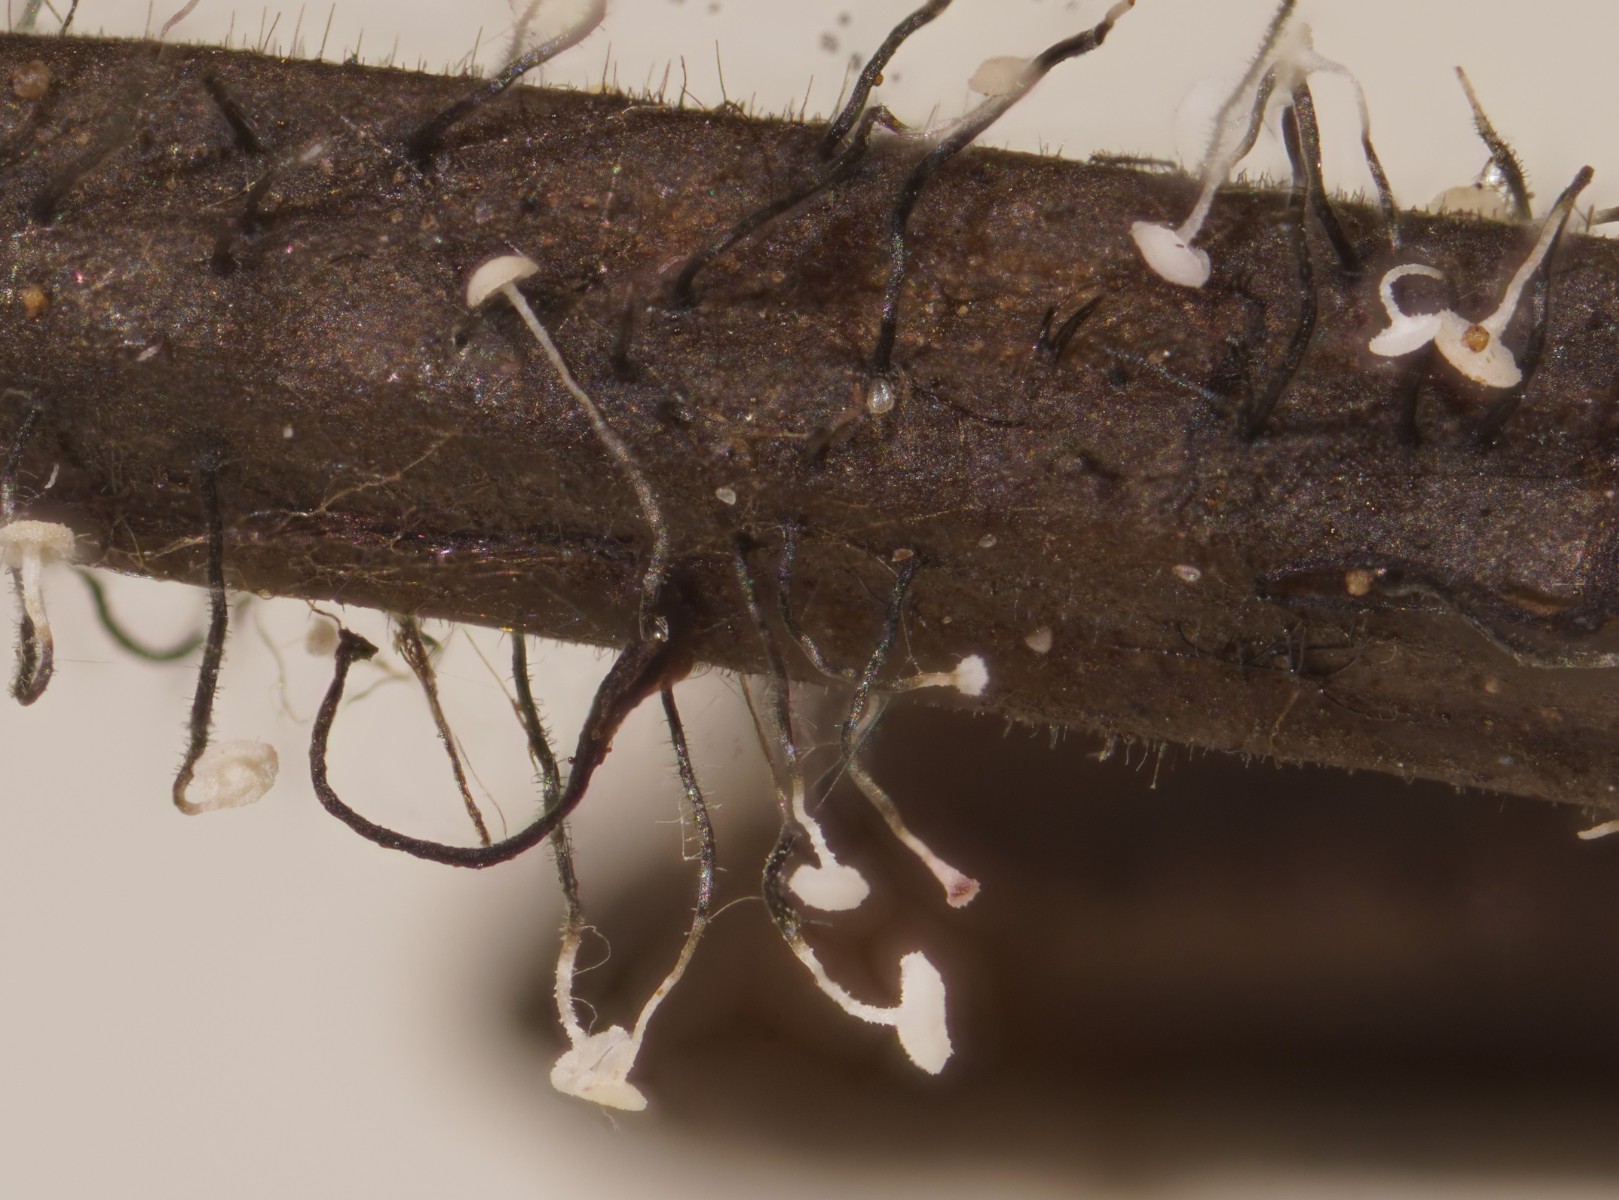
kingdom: Fungi
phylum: Ascomycota
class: Leotiomycetes
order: Helotiales
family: Gelatinodiscaceae
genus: Ombrophila
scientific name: Ombrophila juniperinella
